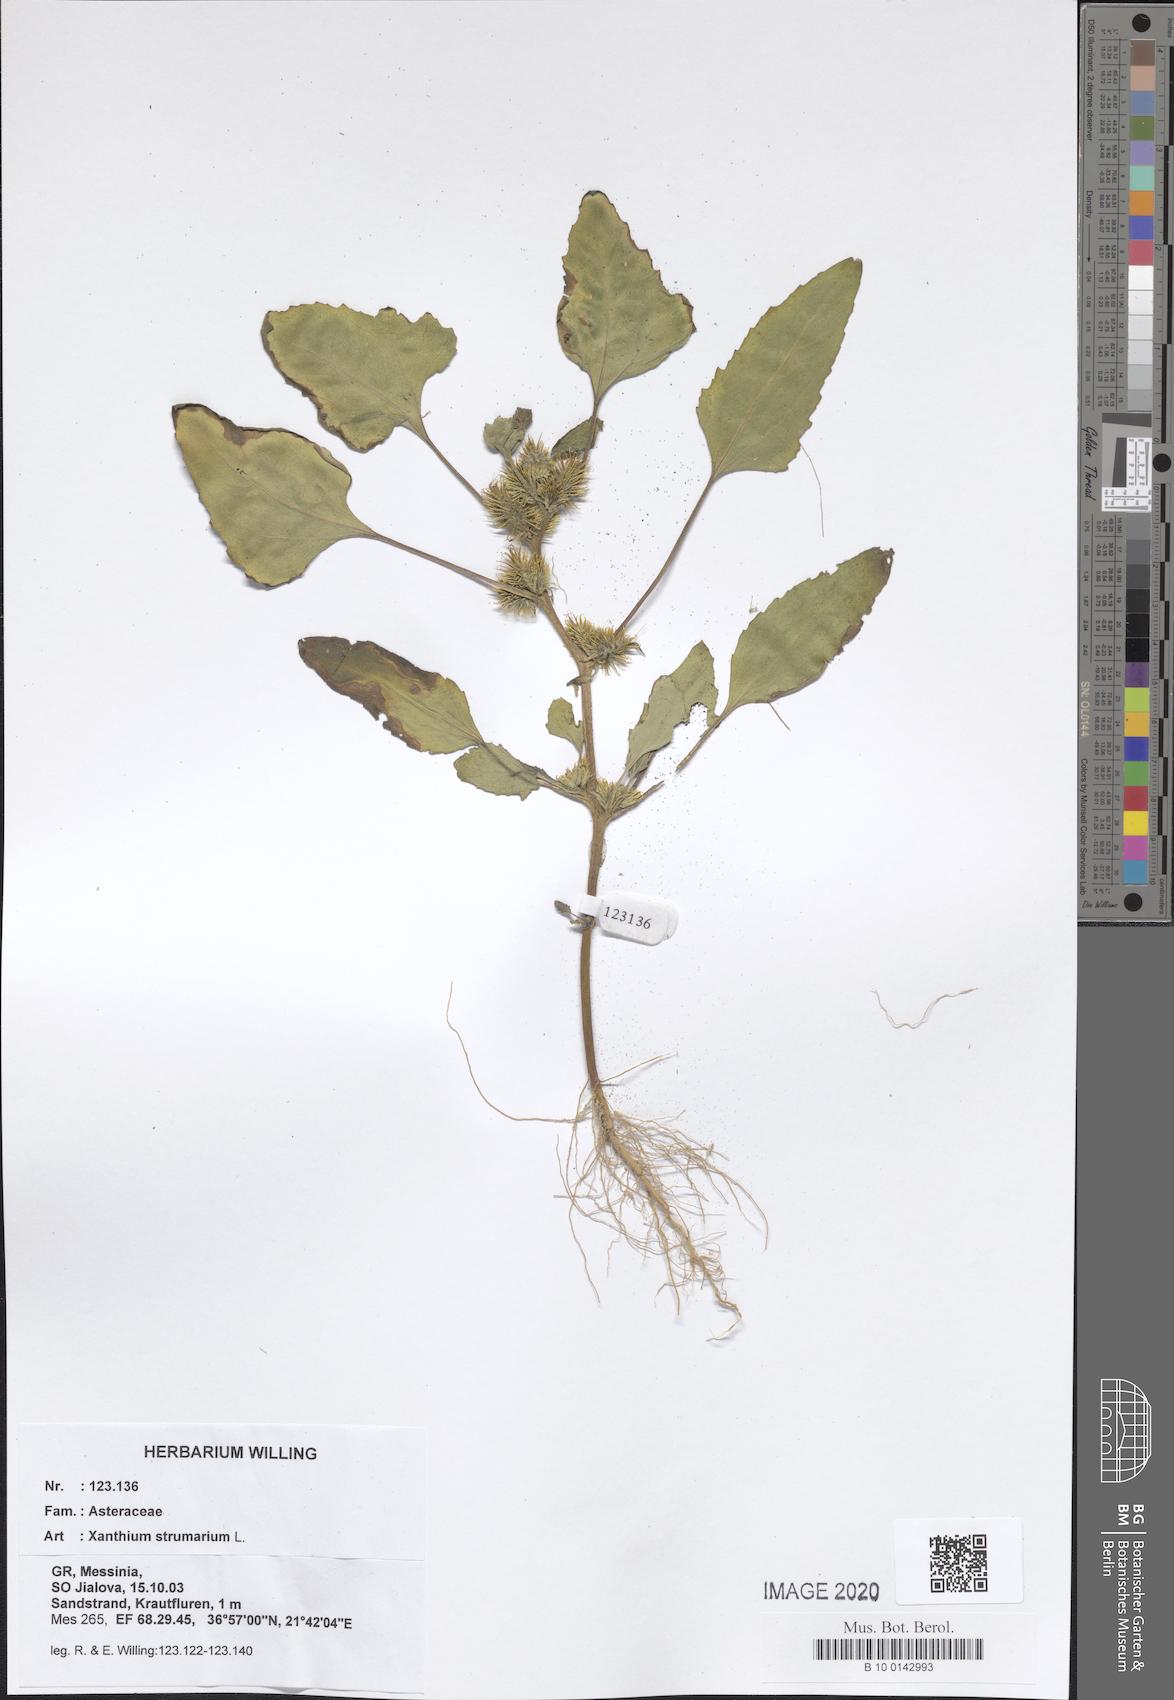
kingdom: Plantae
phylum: Tracheophyta
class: Magnoliopsida
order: Asterales
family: Asteraceae
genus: Xanthium
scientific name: Xanthium strumarium
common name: Rough cocklebur
